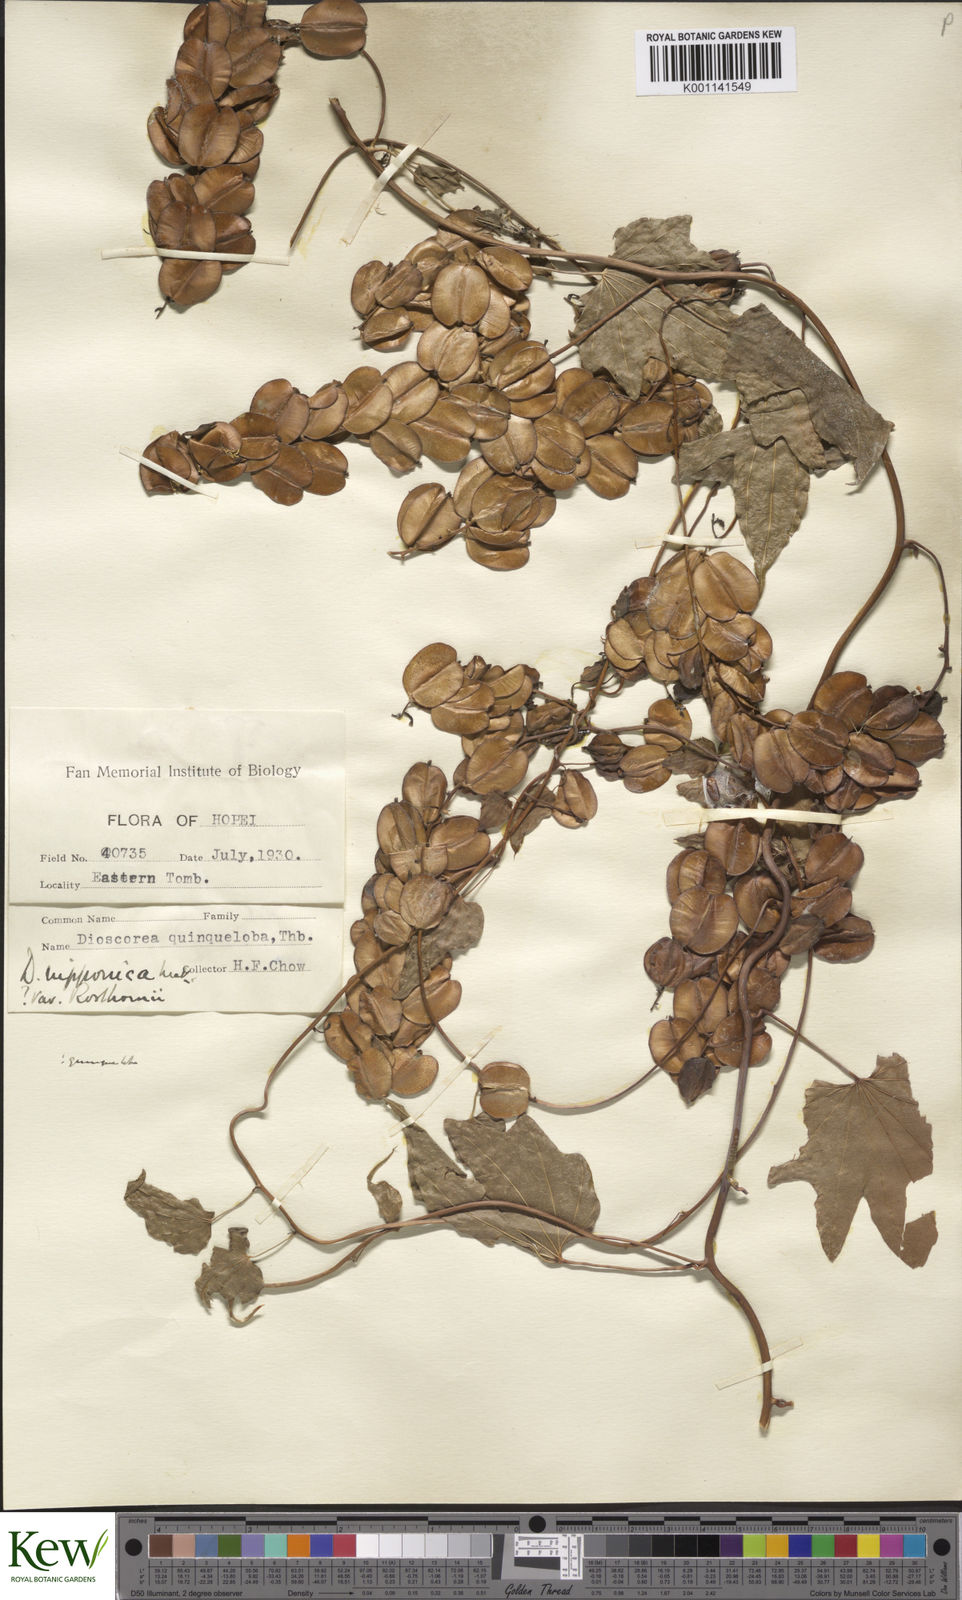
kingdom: Plantae
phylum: Tracheophyta
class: Liliopsida
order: Dioscoreales
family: Dioscoreaceae
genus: Dioscorea
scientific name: Dioscorea nipponica
